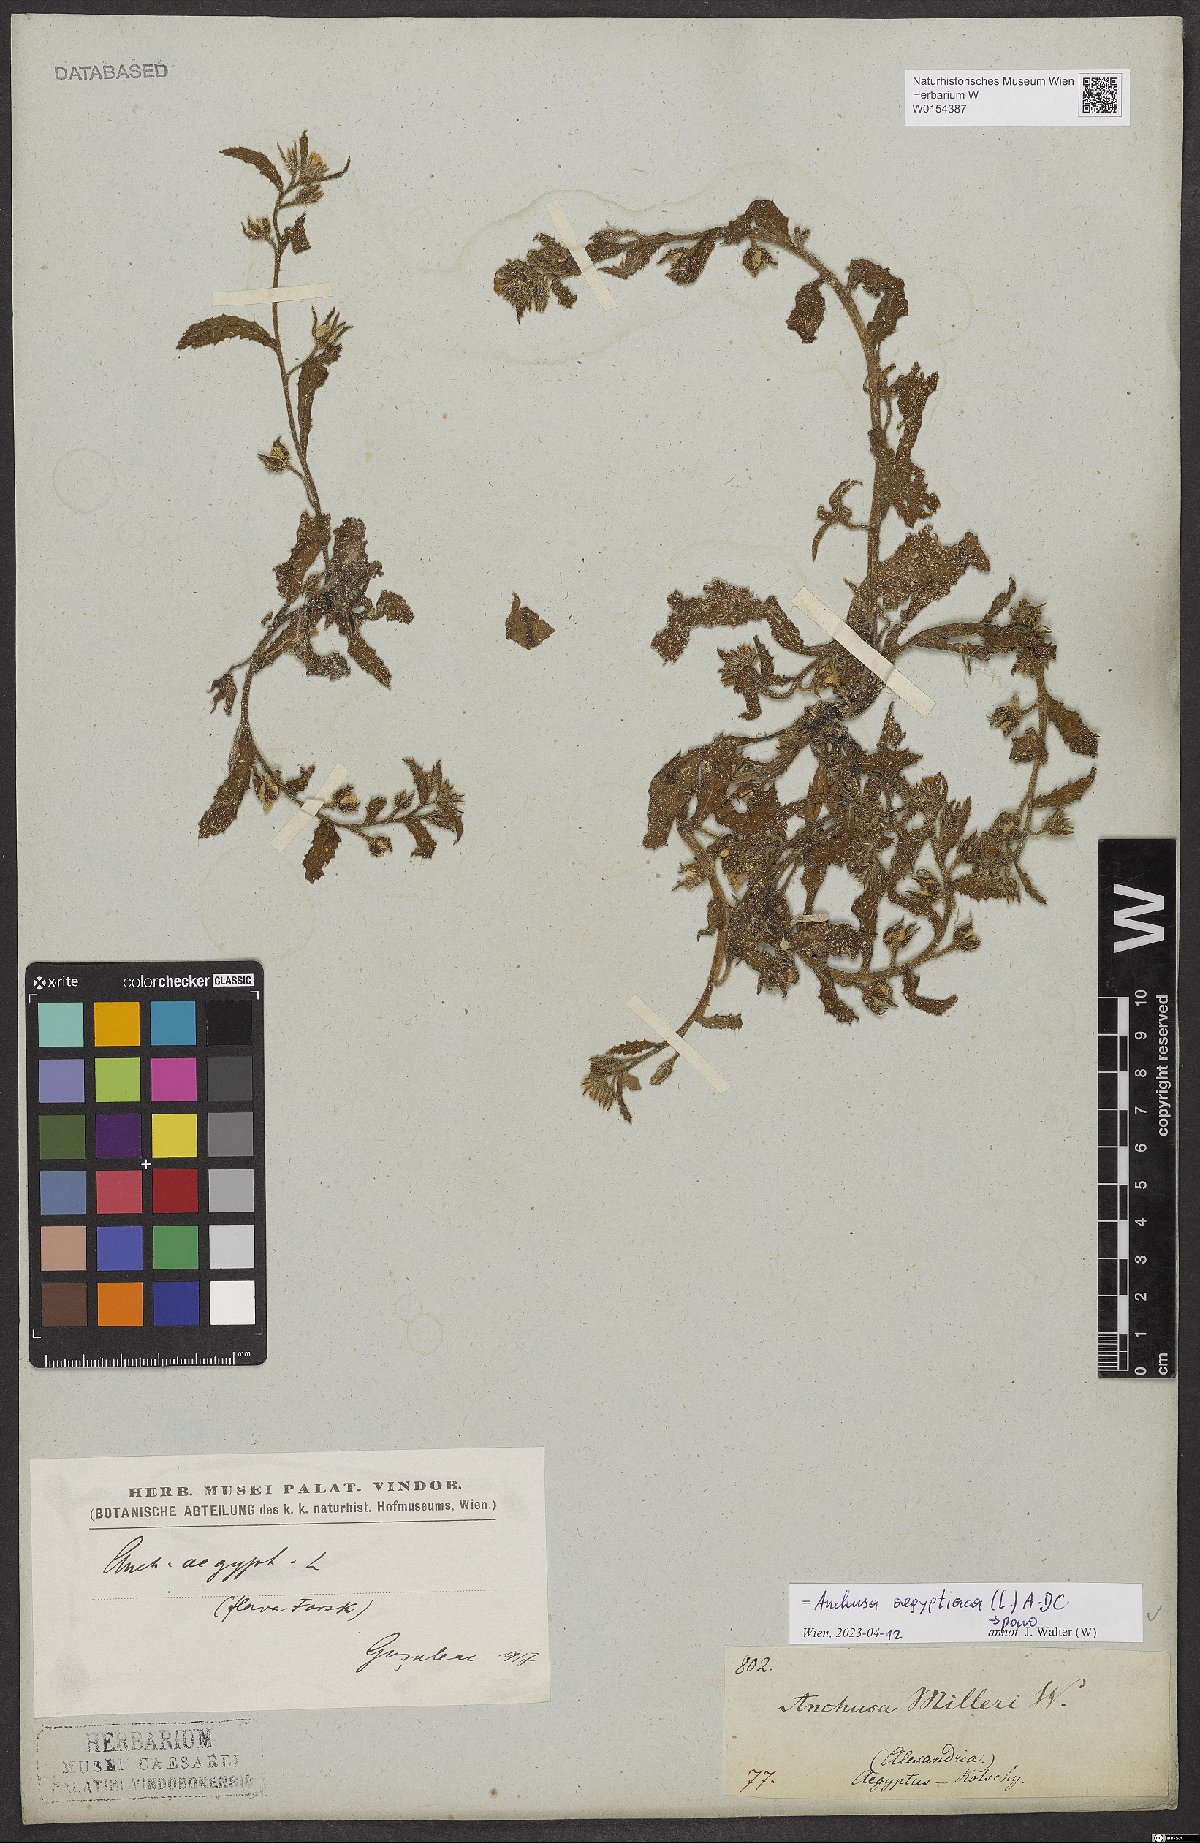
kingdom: Plantae
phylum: Tracheophyta
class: Magnoliopsida
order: Boraginales
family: Boraginaceae
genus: Lycopsis
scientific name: Lycopsis aegyptiaca
